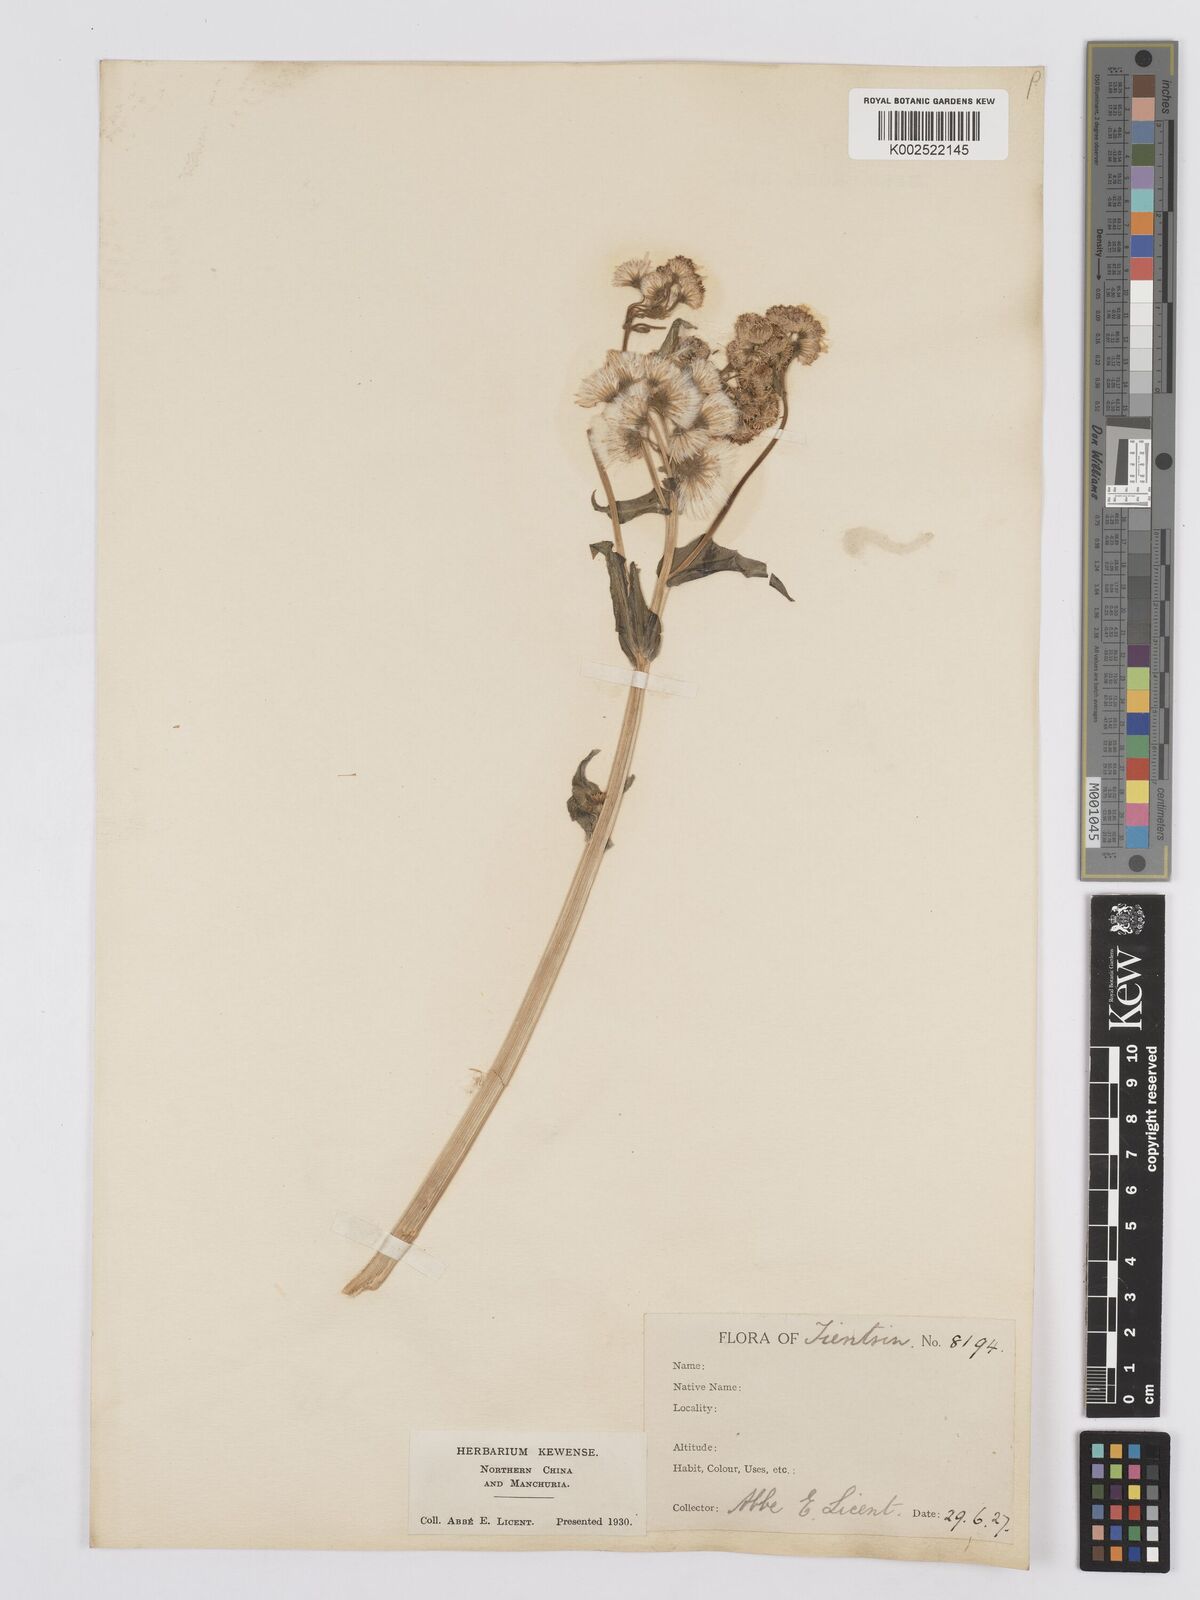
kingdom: Plantae
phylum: Tracheophyta
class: Magnoliopsida
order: Asterales
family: Asteraceae
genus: Tephroseris
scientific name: Tephroseris palustris
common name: Marsh fleawort
